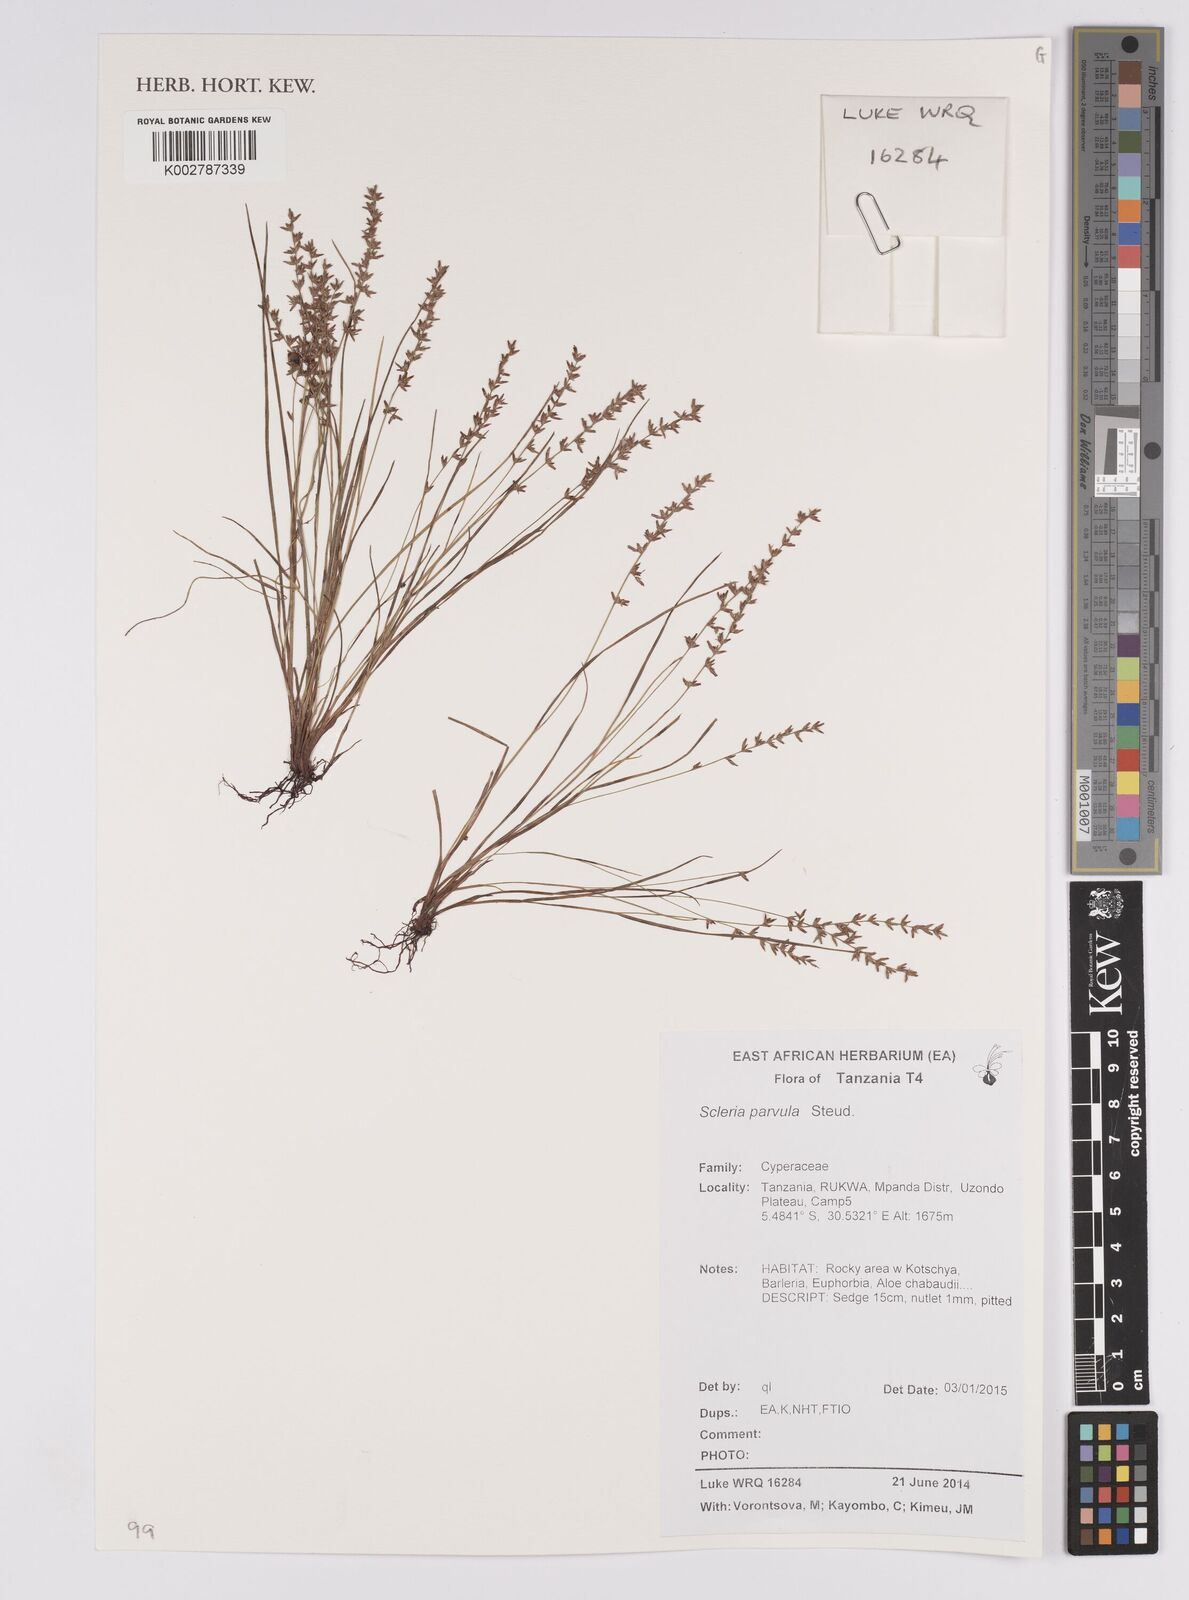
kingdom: Plantae
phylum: Tracheophyta
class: Liliopsida
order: Poales
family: Cyperaceae
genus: Scleria
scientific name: Scleria parvula
